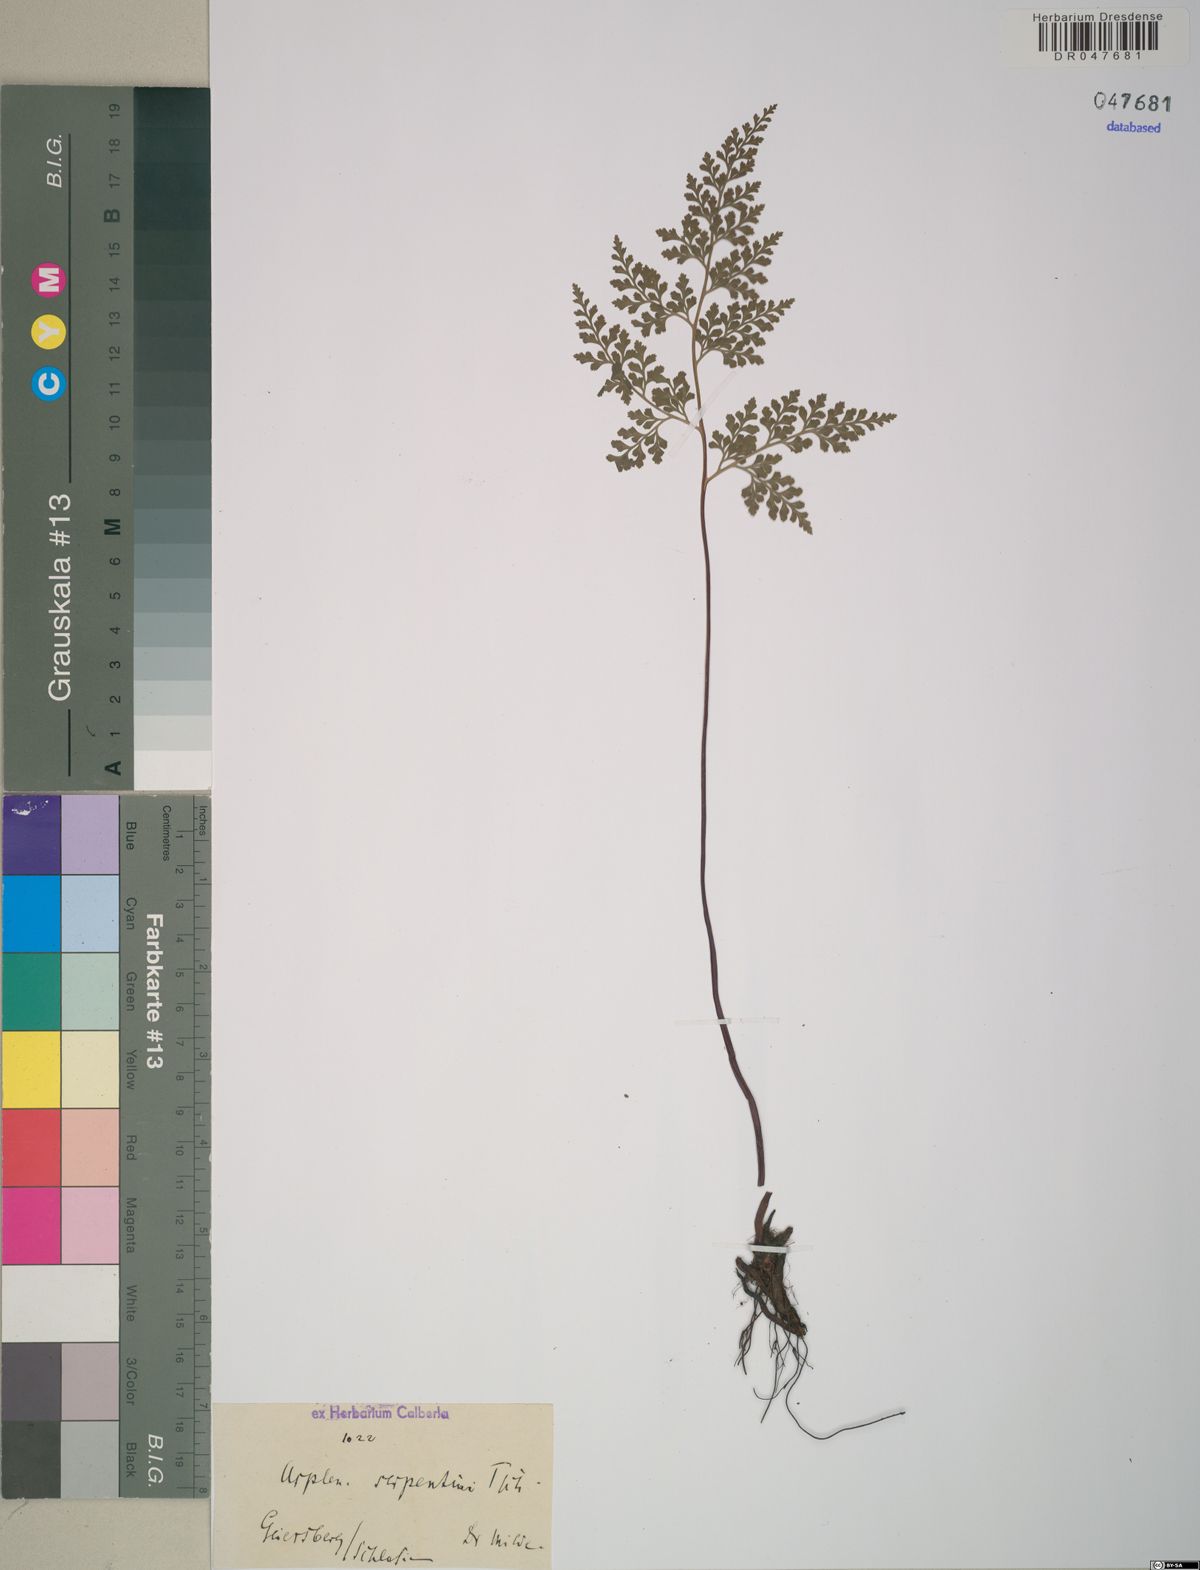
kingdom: Plantae
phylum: Tracheophyta
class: Polypodiopsida
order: Polypodiales
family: Aspleniaceae
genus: Asplenium
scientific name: Asplenium cuneifolium
